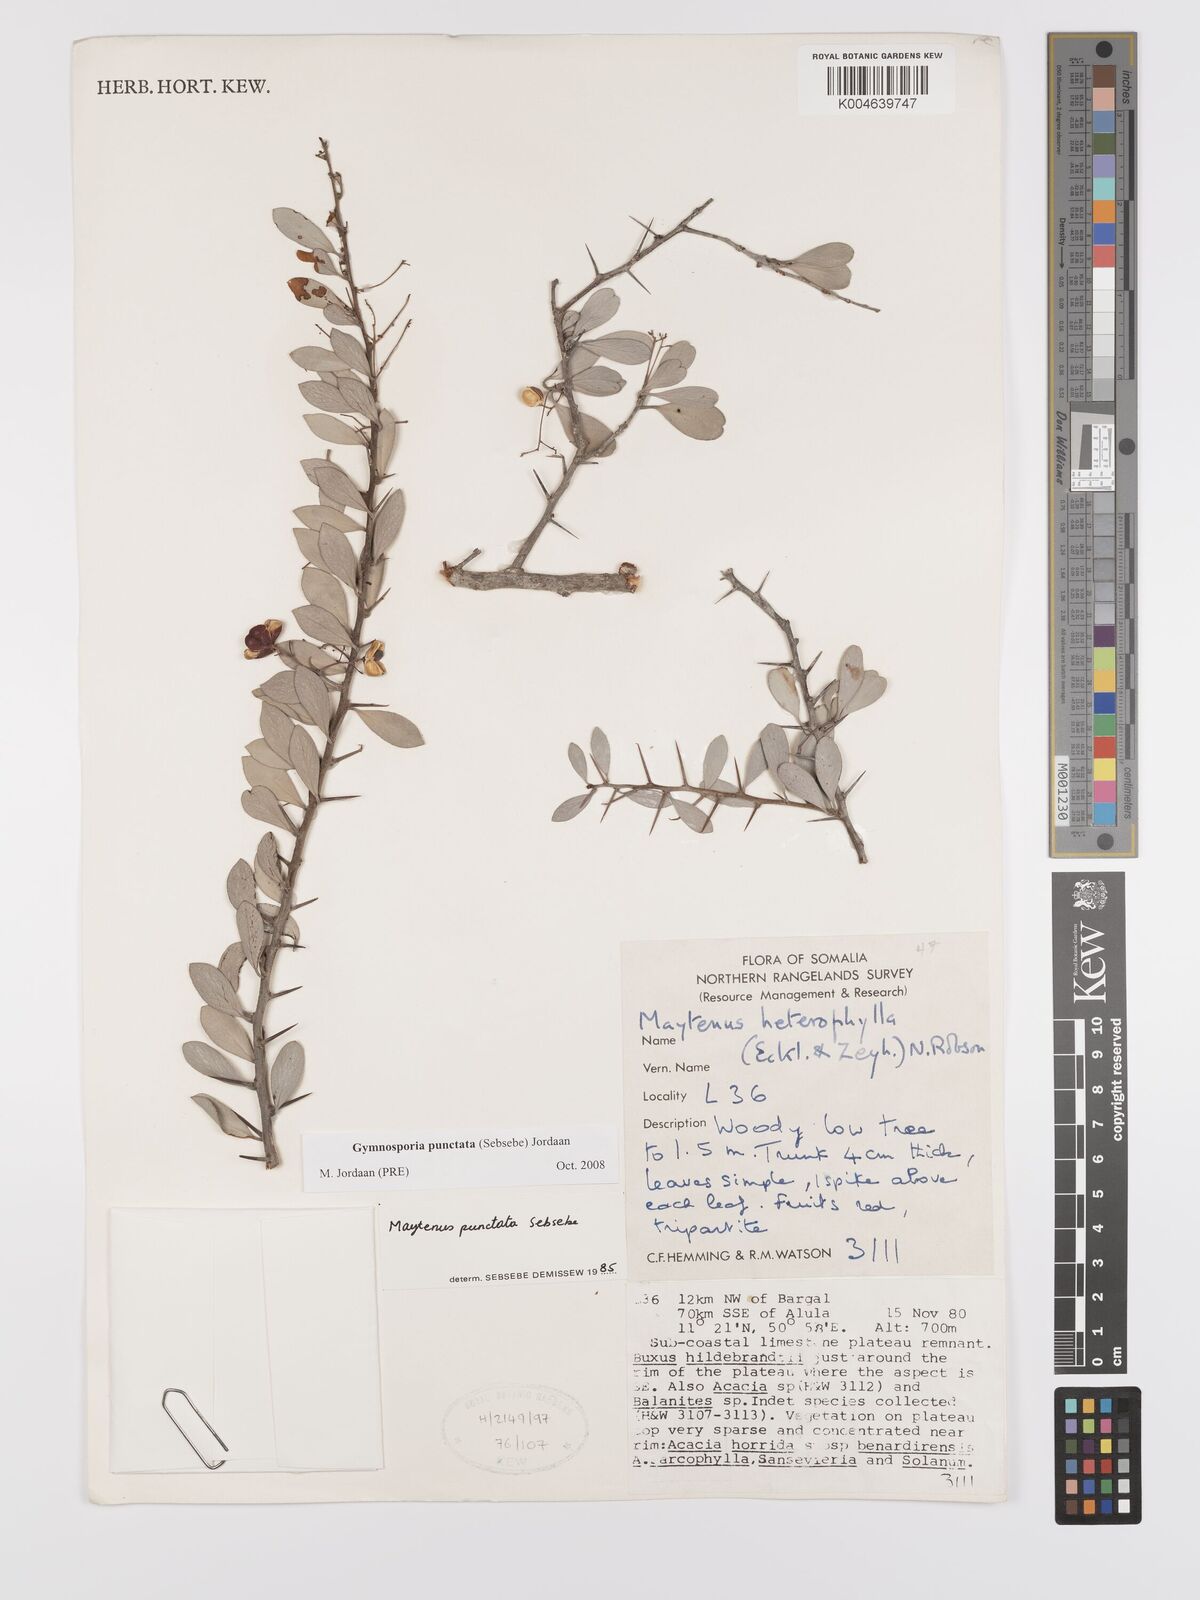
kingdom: Plantae
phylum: Tracheophyta
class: Magnoliopsida
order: Celastrales
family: Celastraceae
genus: Gymnosporia
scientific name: Gymnosporia punctata
